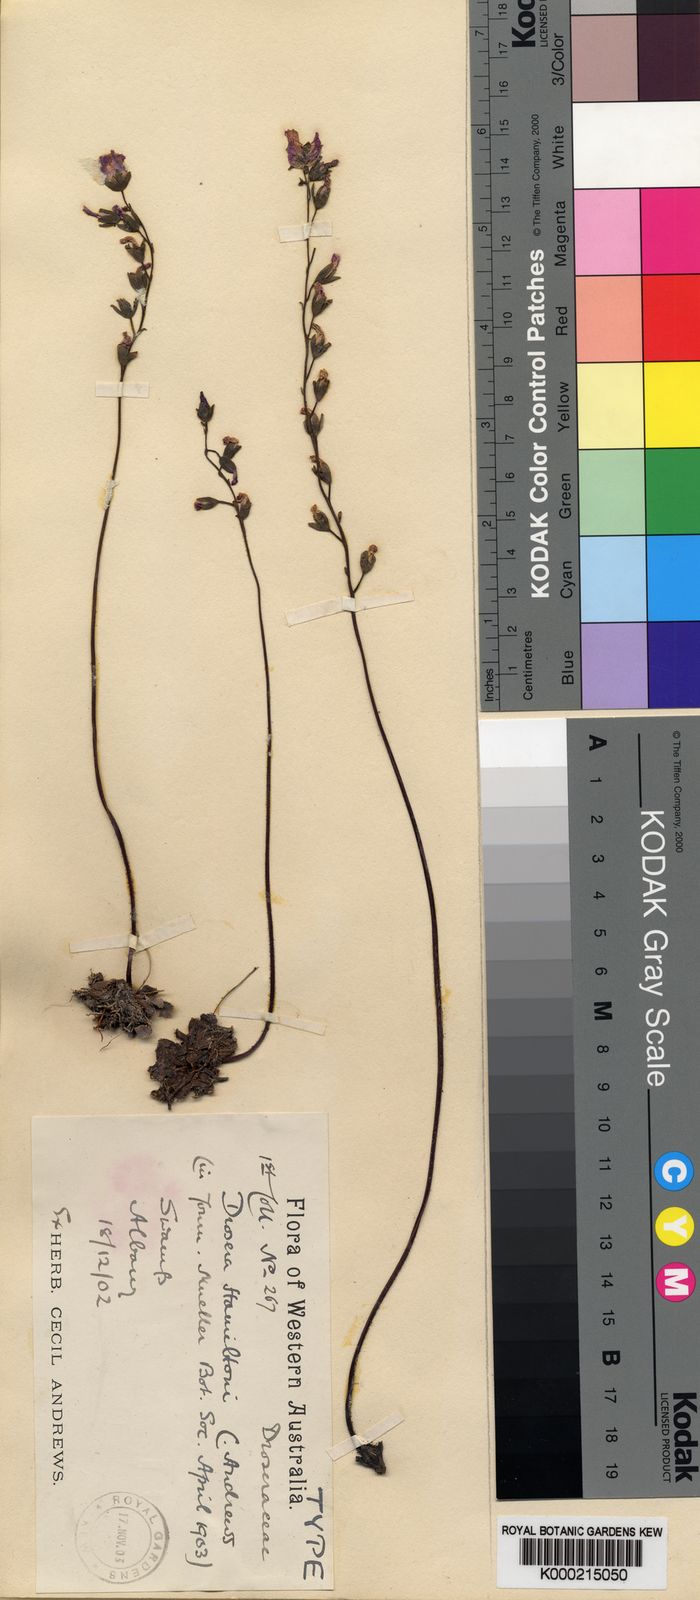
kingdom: Plantae
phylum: Tracheophyta
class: Magnoliopsida
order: Caryophyllales
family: Droseraceae
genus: Drosera
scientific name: Drosera hamiltonii
